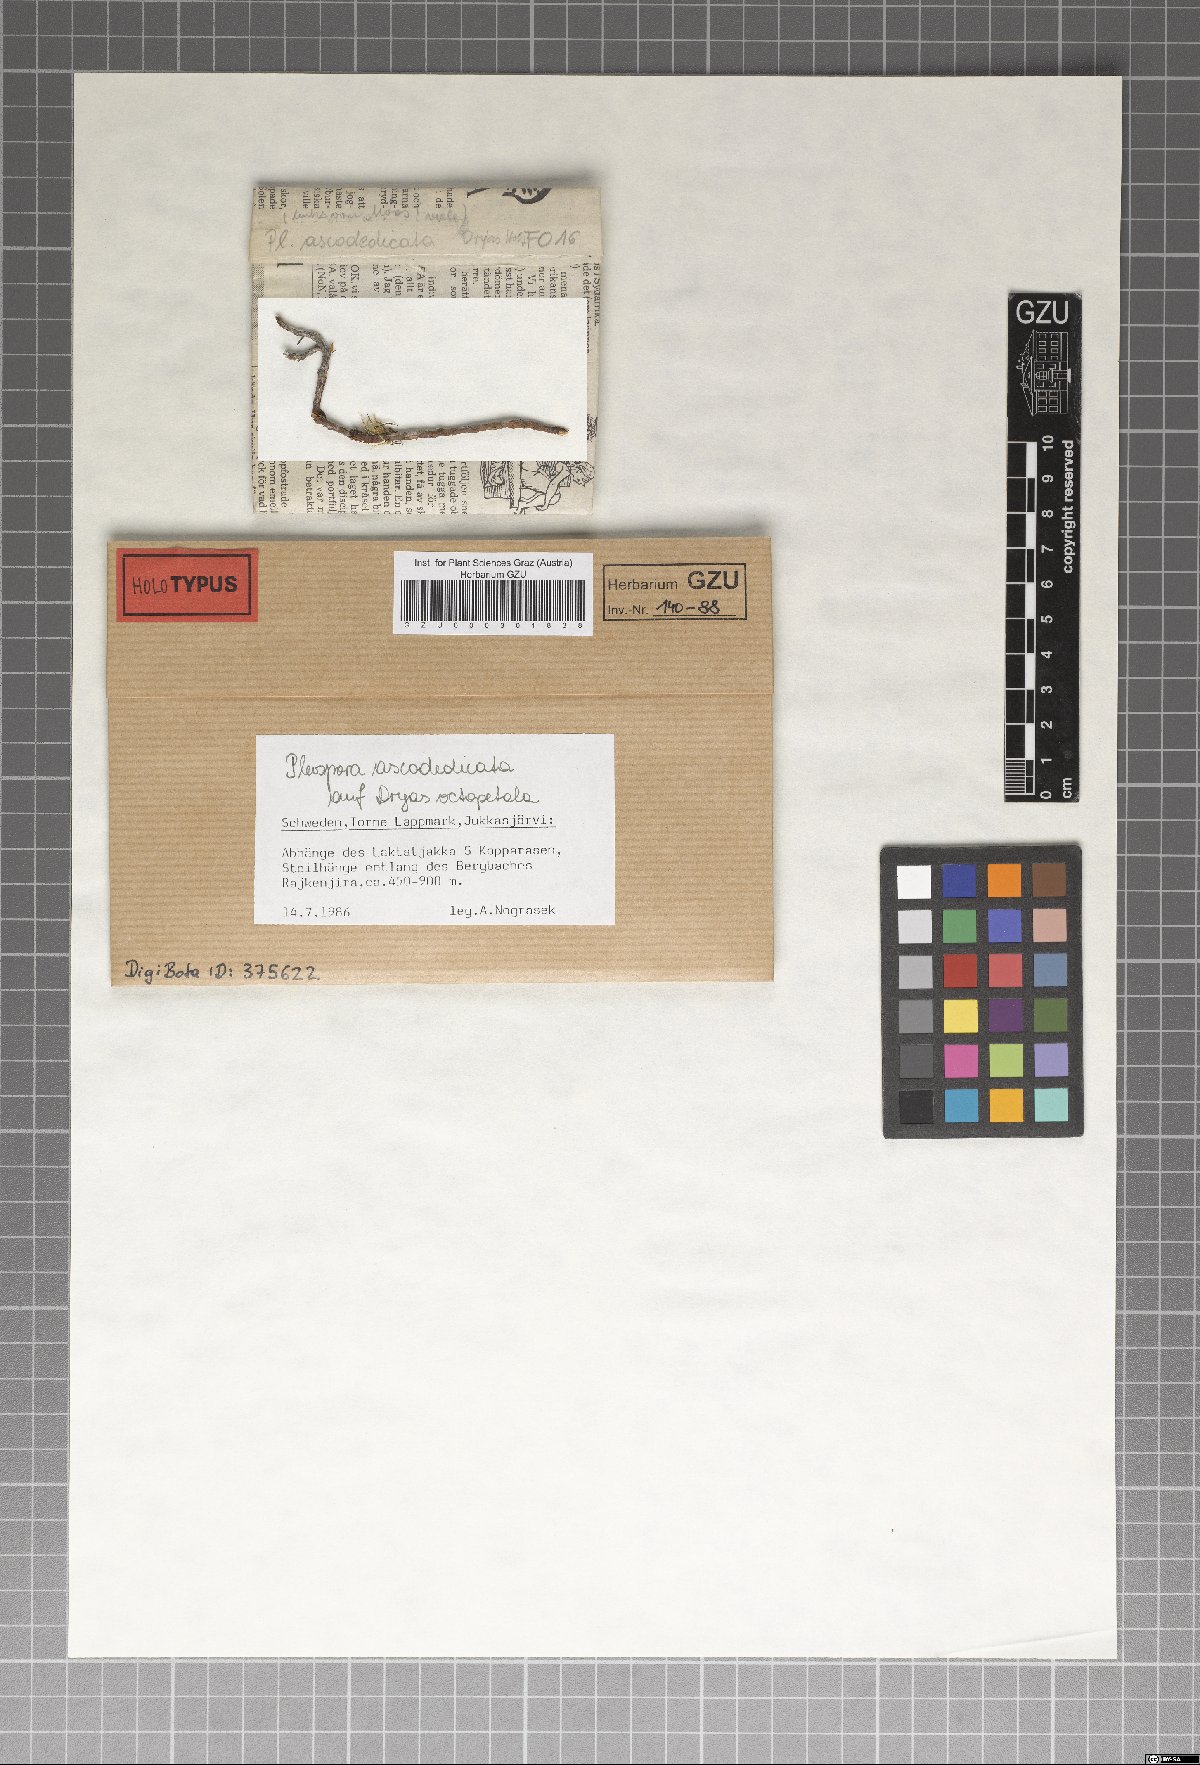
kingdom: Fungi
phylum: Ascomycota
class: Dothideomycetes
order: Pleosporales
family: Pleosporaceae
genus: Pleospora
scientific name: Pleospora ascodedicata
